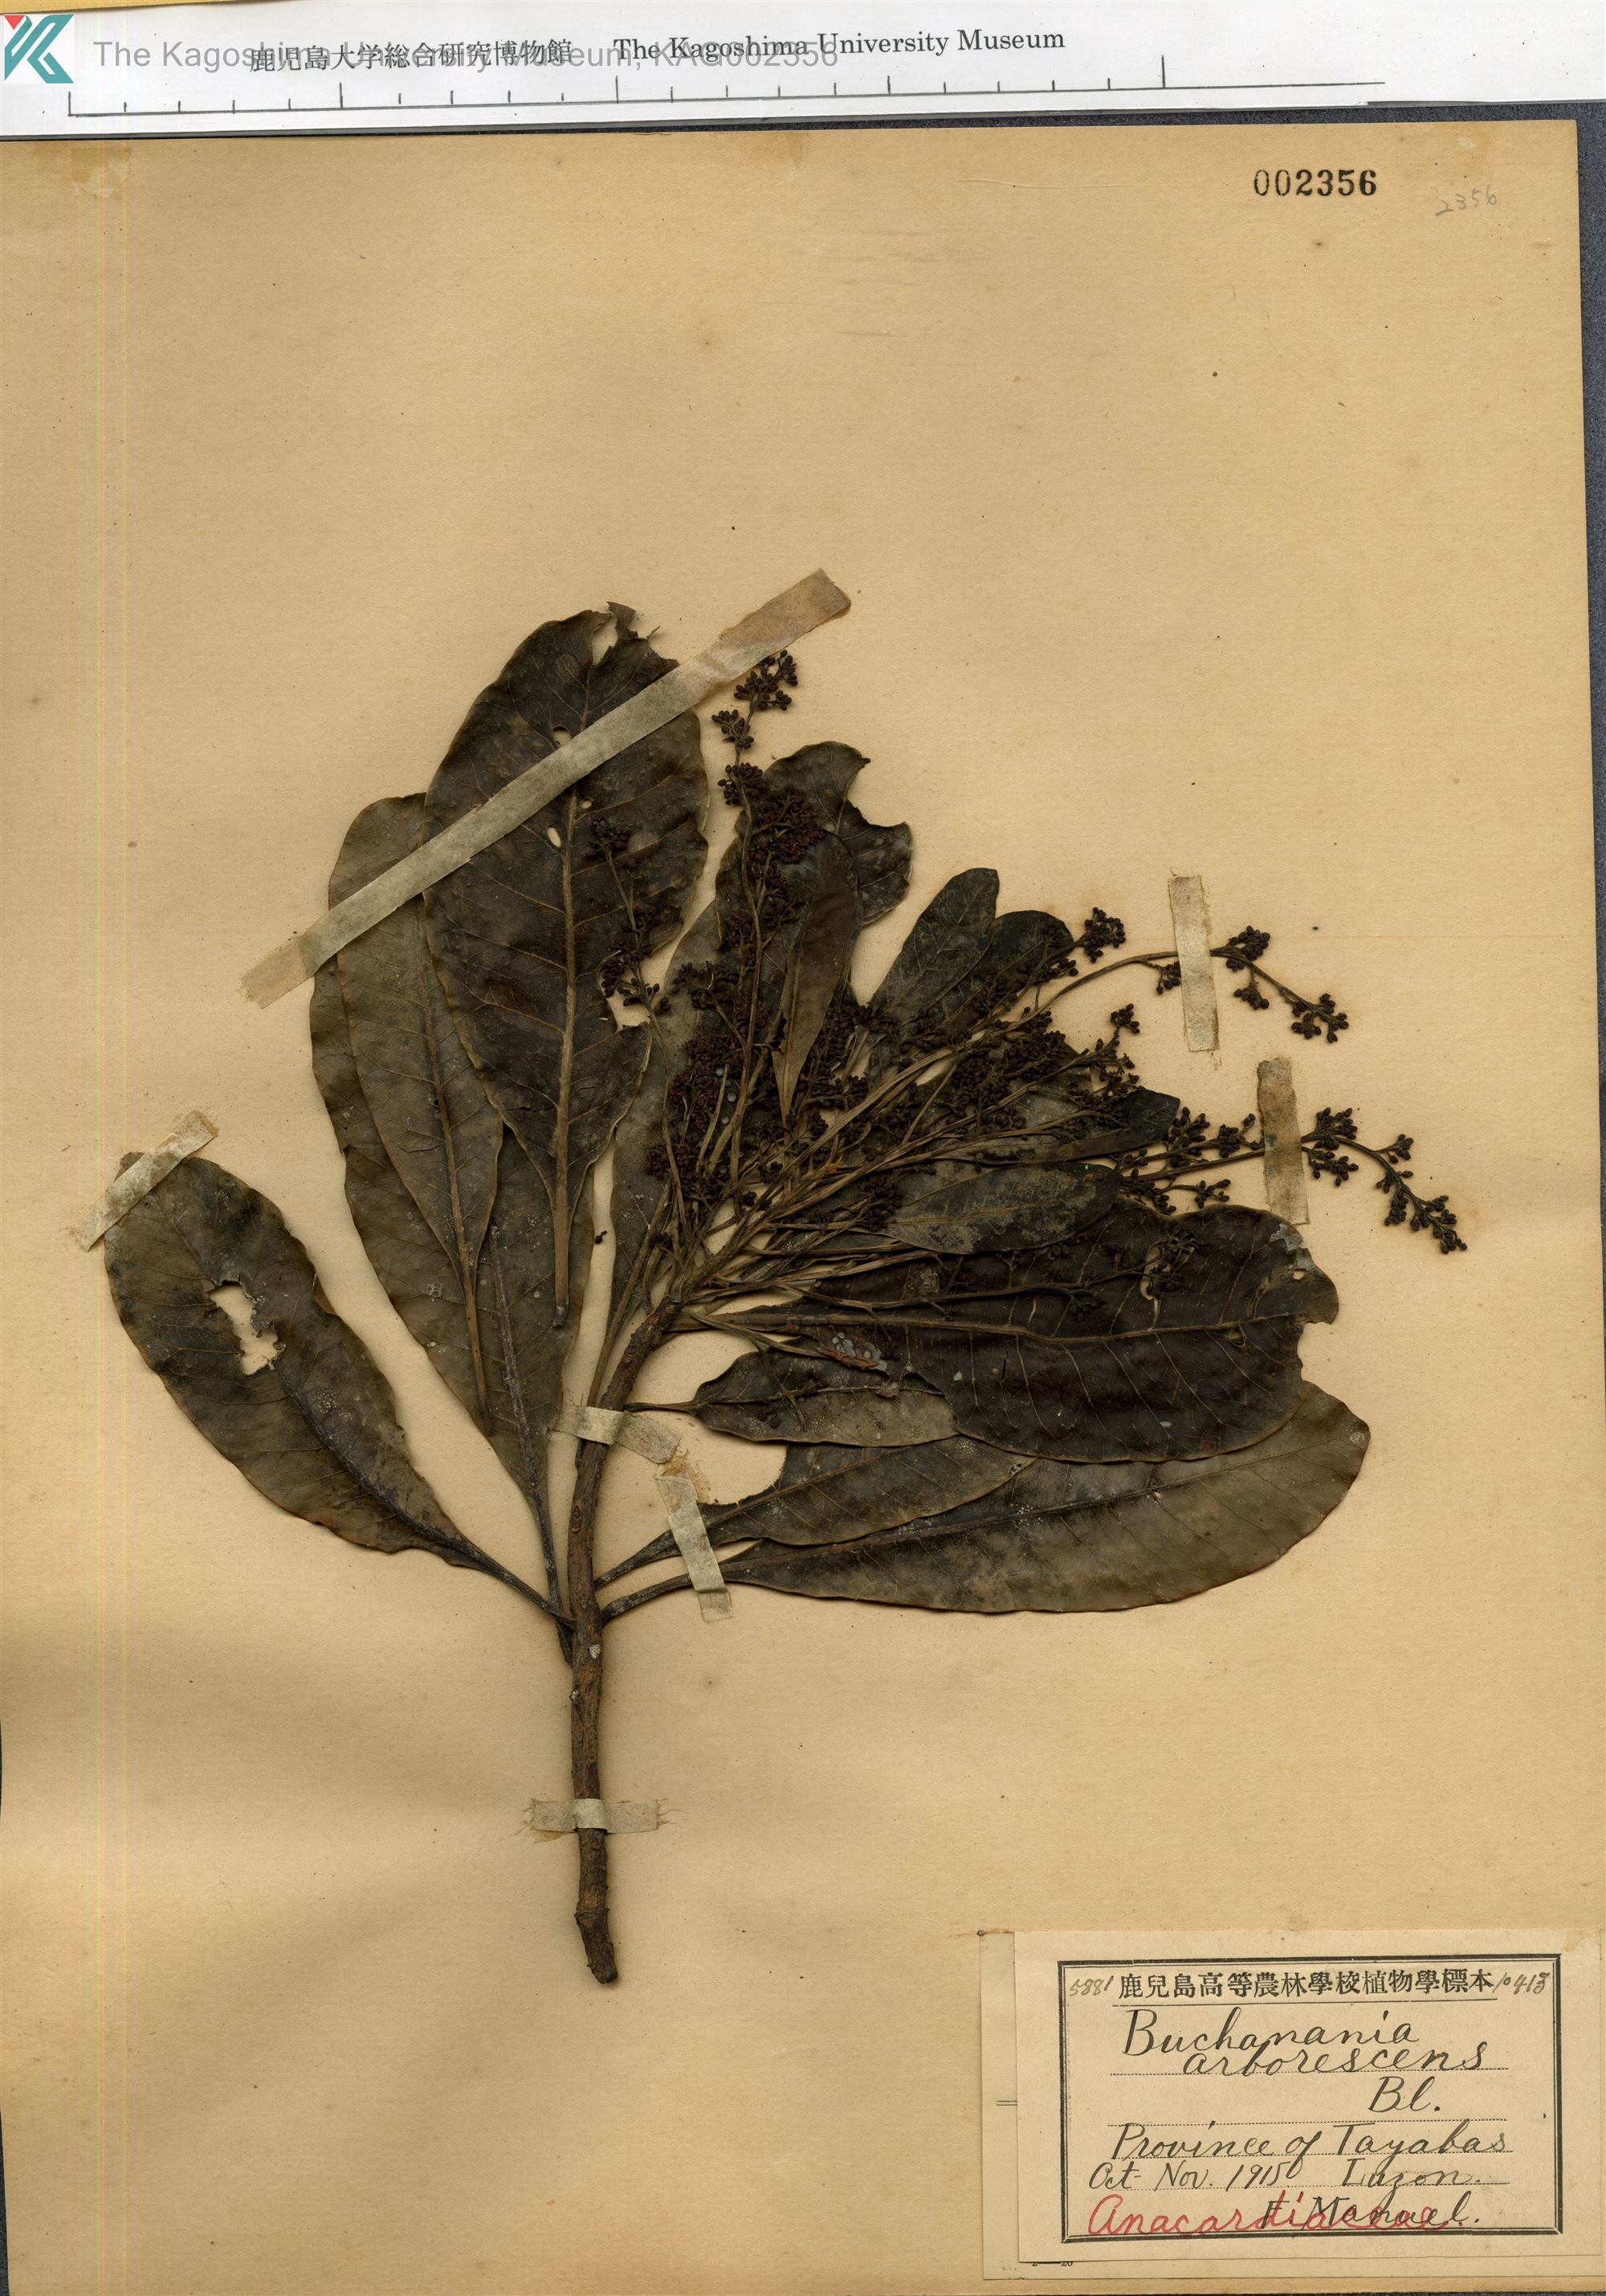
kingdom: Plantae
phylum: Tracheophyta
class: Magnoliopsida
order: Sapindales
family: Anacardiaceae
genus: Buchanania
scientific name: Buchanania arborescens
